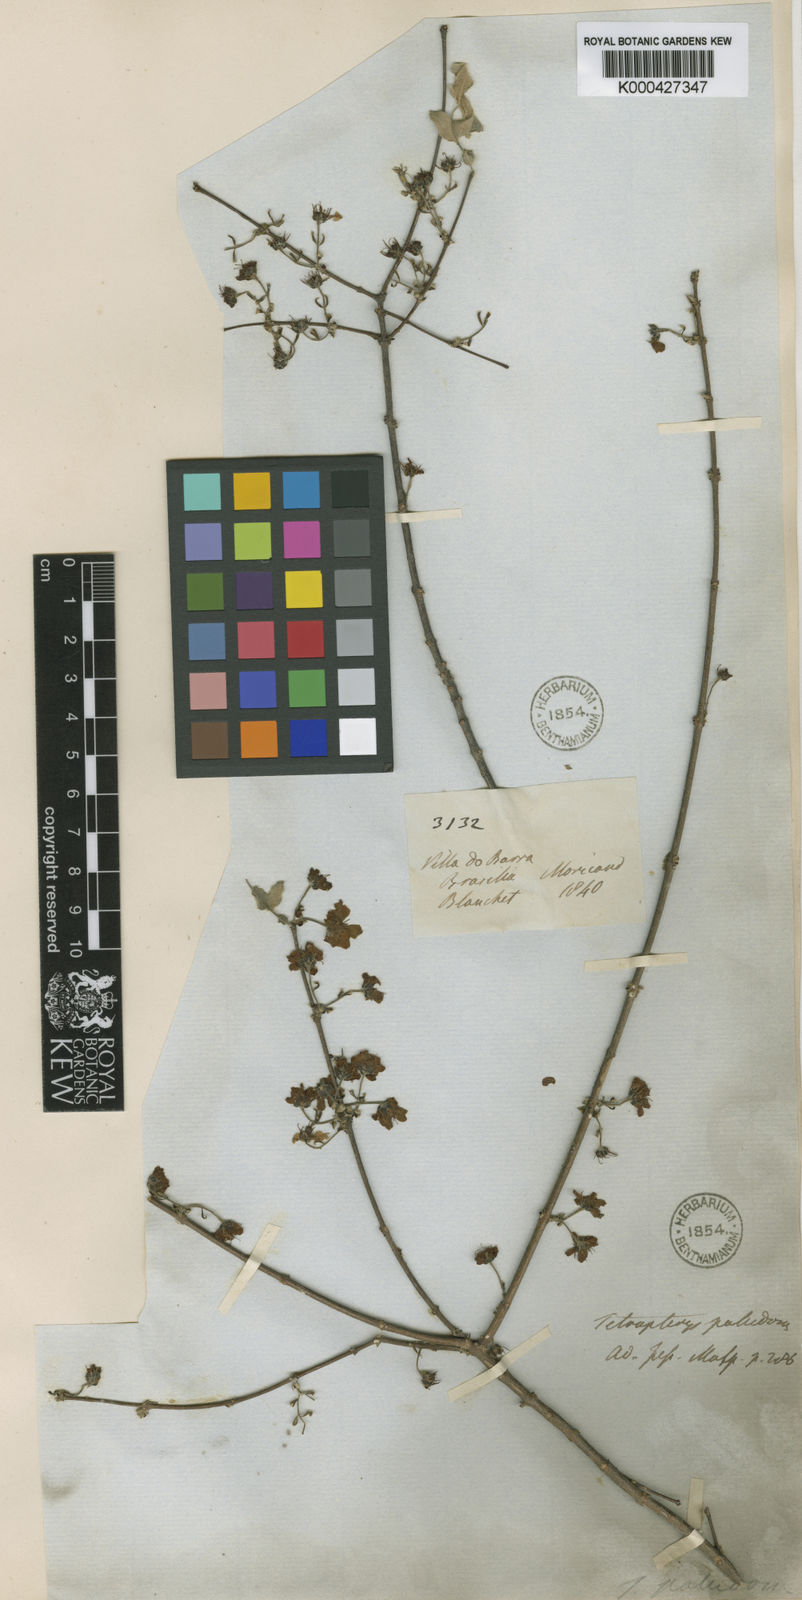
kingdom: Plantae
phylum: Tracheophyta
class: Magnoliopsida
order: Malpighiales
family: Malpighiaceae
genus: Glicophyllum
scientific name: Glicophyllum paludosum
